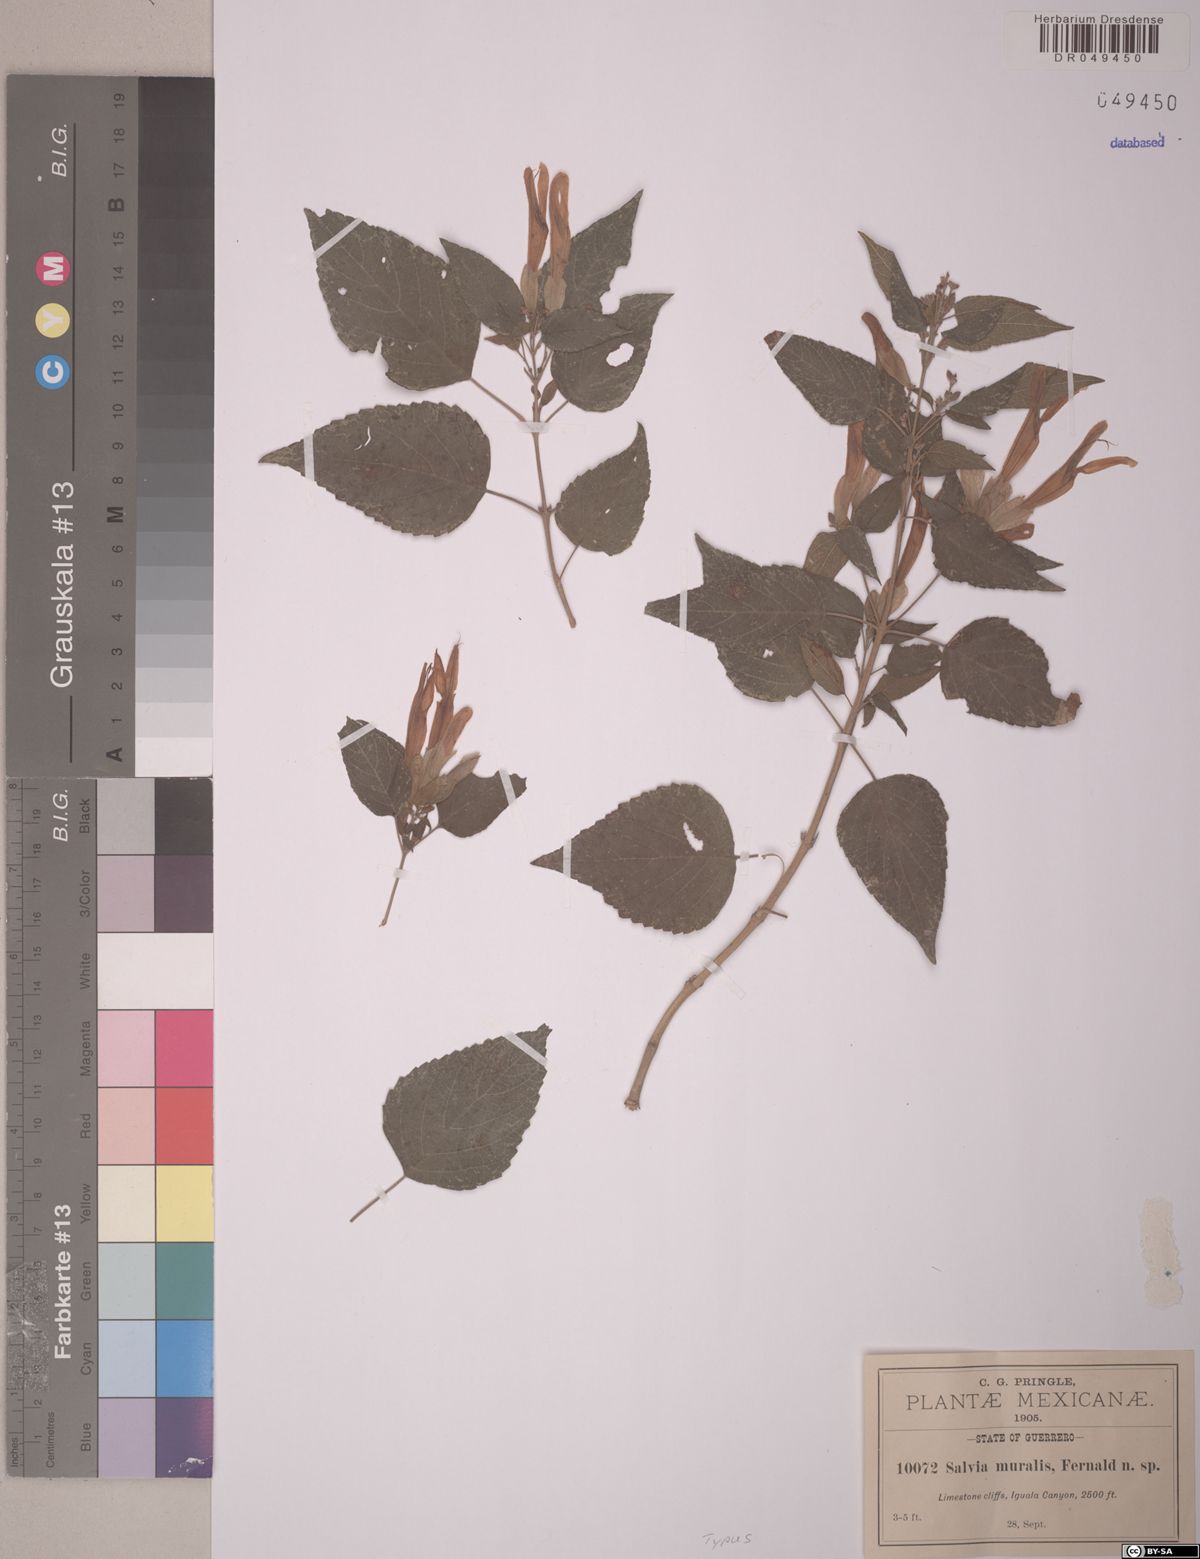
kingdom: Plantae
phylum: Tracheophyta
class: Magnoliopsida
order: Lamiales
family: Lamiaceae
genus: Salvia
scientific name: Salvia pubescens
